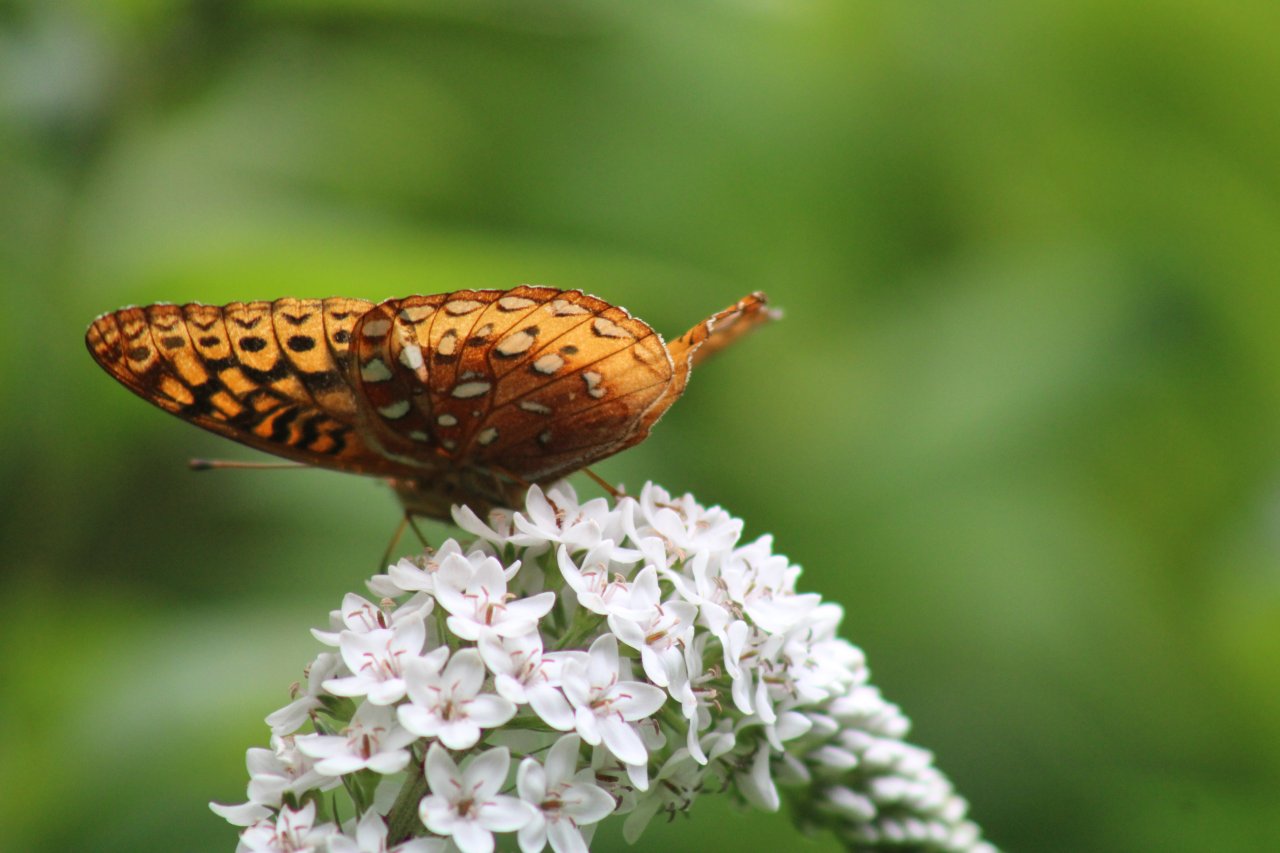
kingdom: Animalia
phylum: Arthropoda
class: Insecta
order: Lepidoptera
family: Nymphalidae
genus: Speyeria
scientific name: Speyeria cybele
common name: Great Spangled Fritillary
